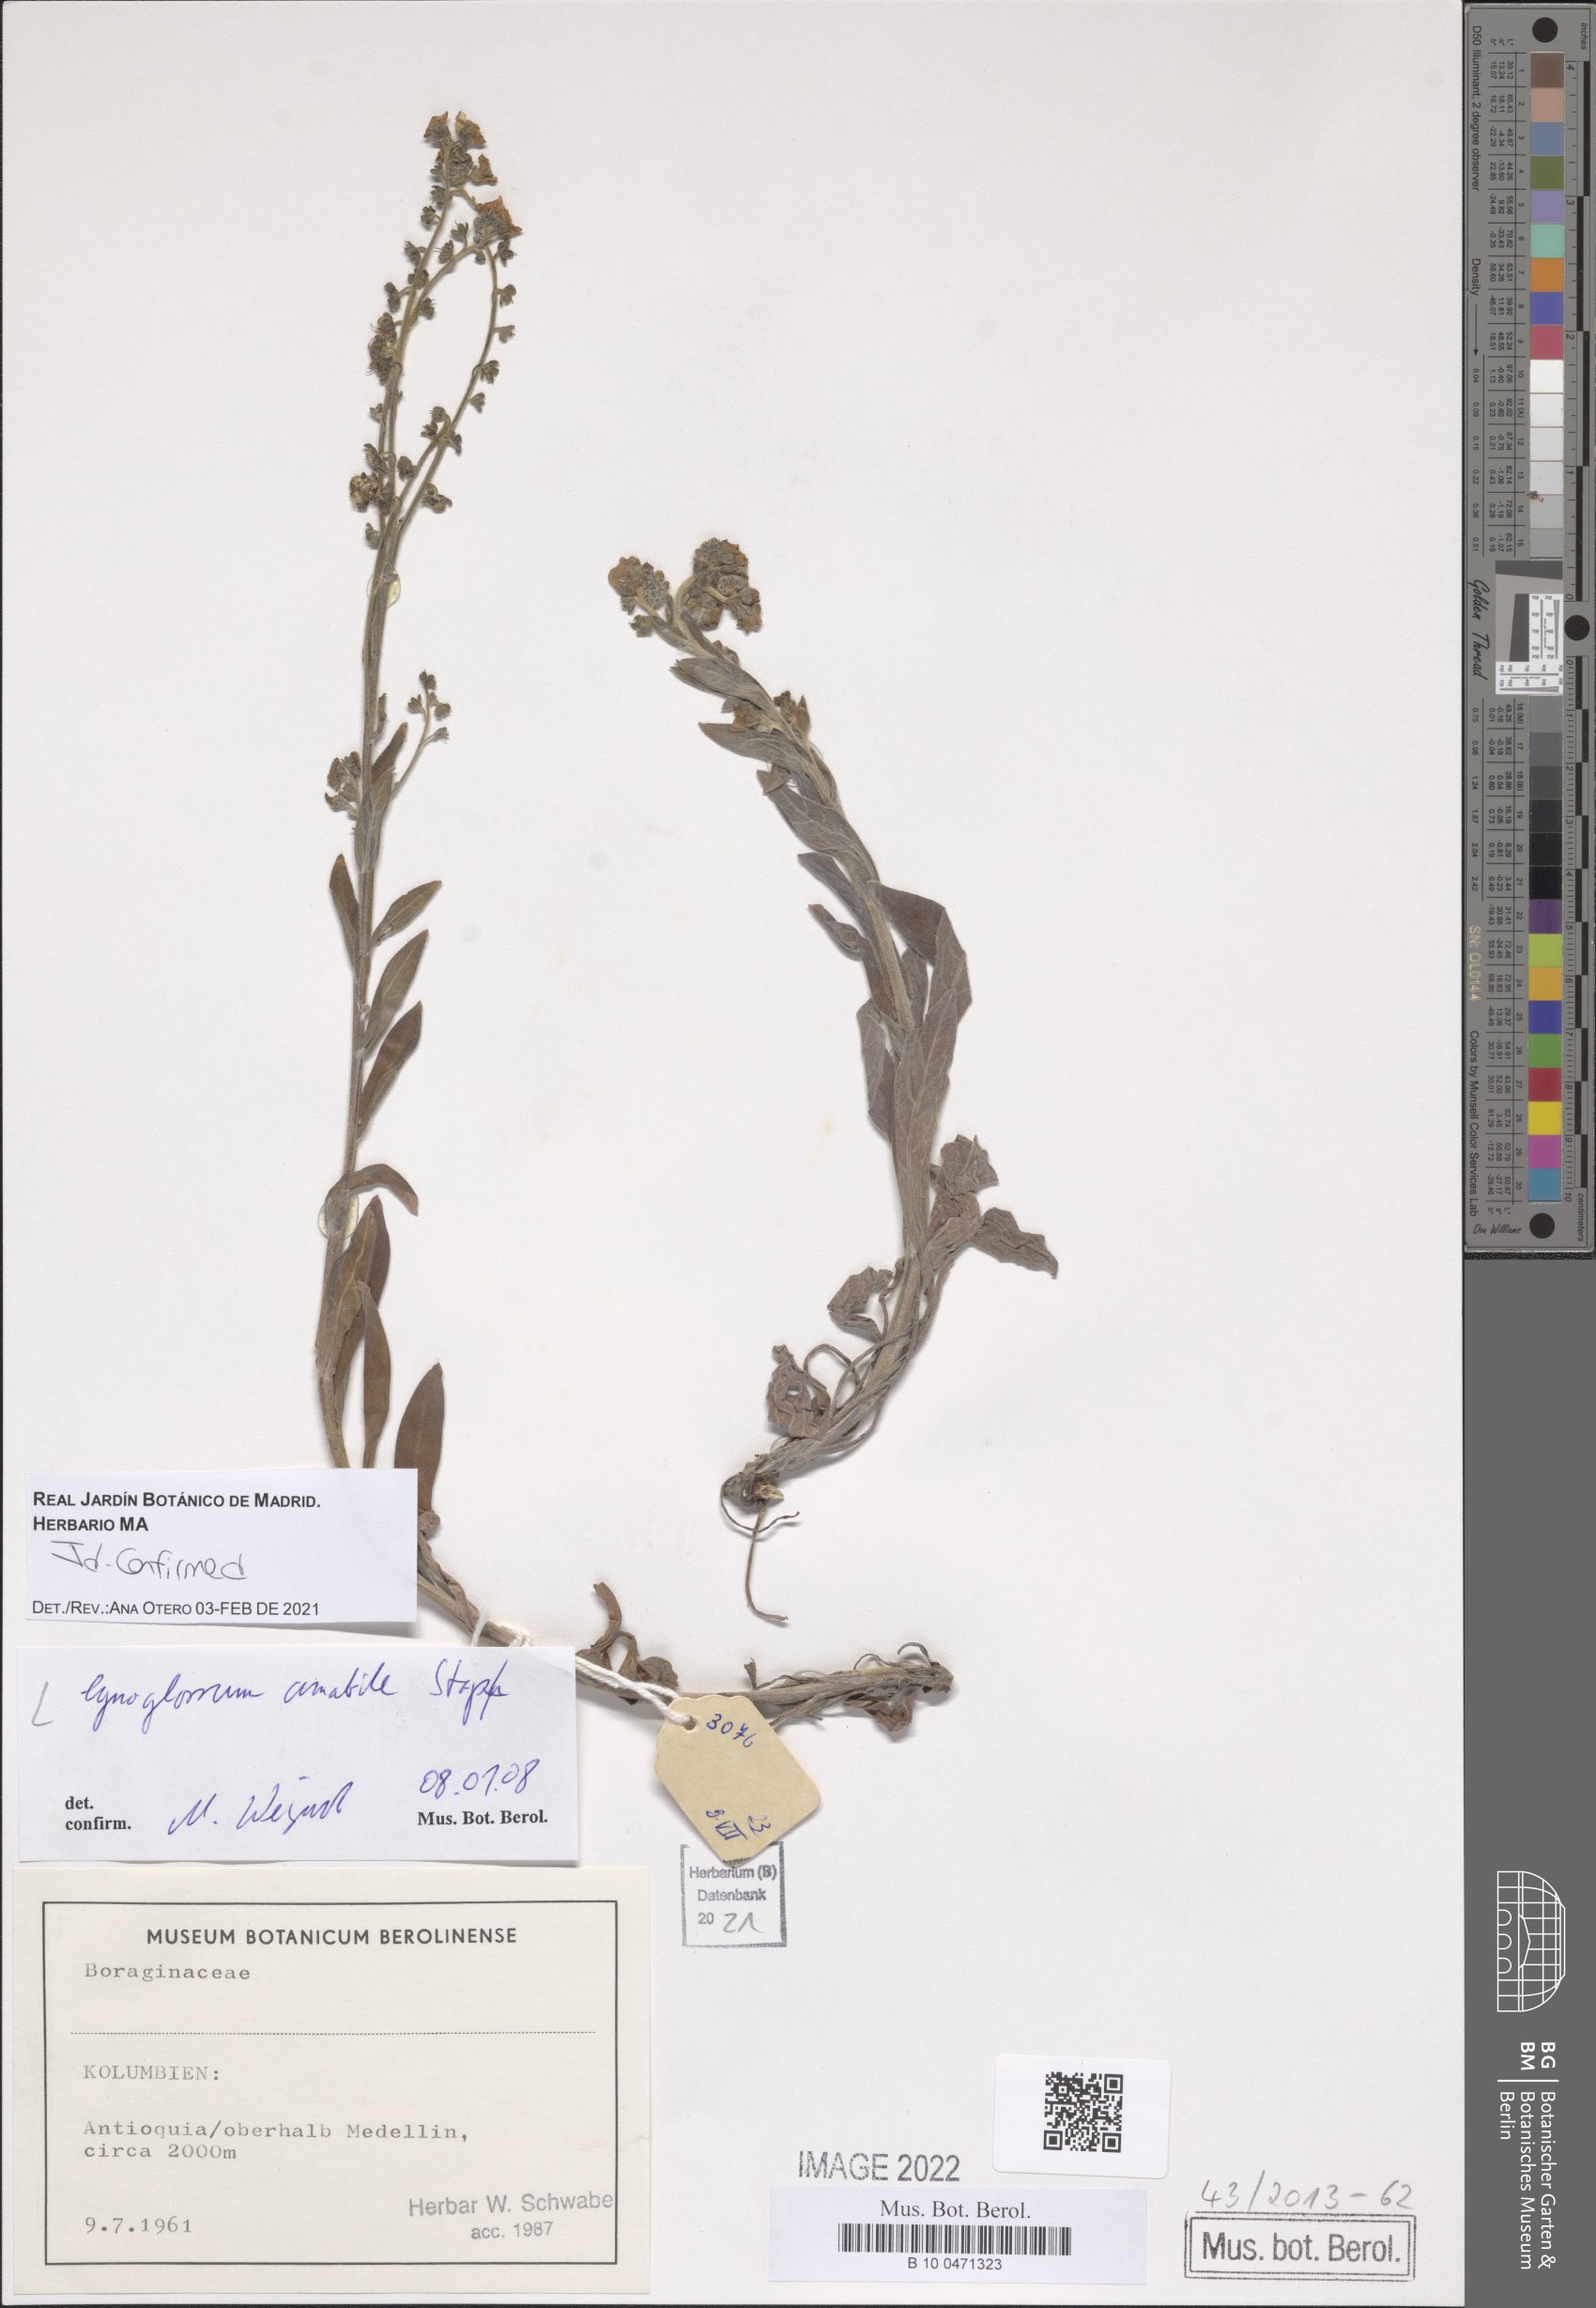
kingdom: Plantae
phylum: Tracheophyta
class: Magnoliopsida
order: Boraginales
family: Boraginaceae
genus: Cynoglossum
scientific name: Cynoglossum amabile
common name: Chinese hound's tongue
